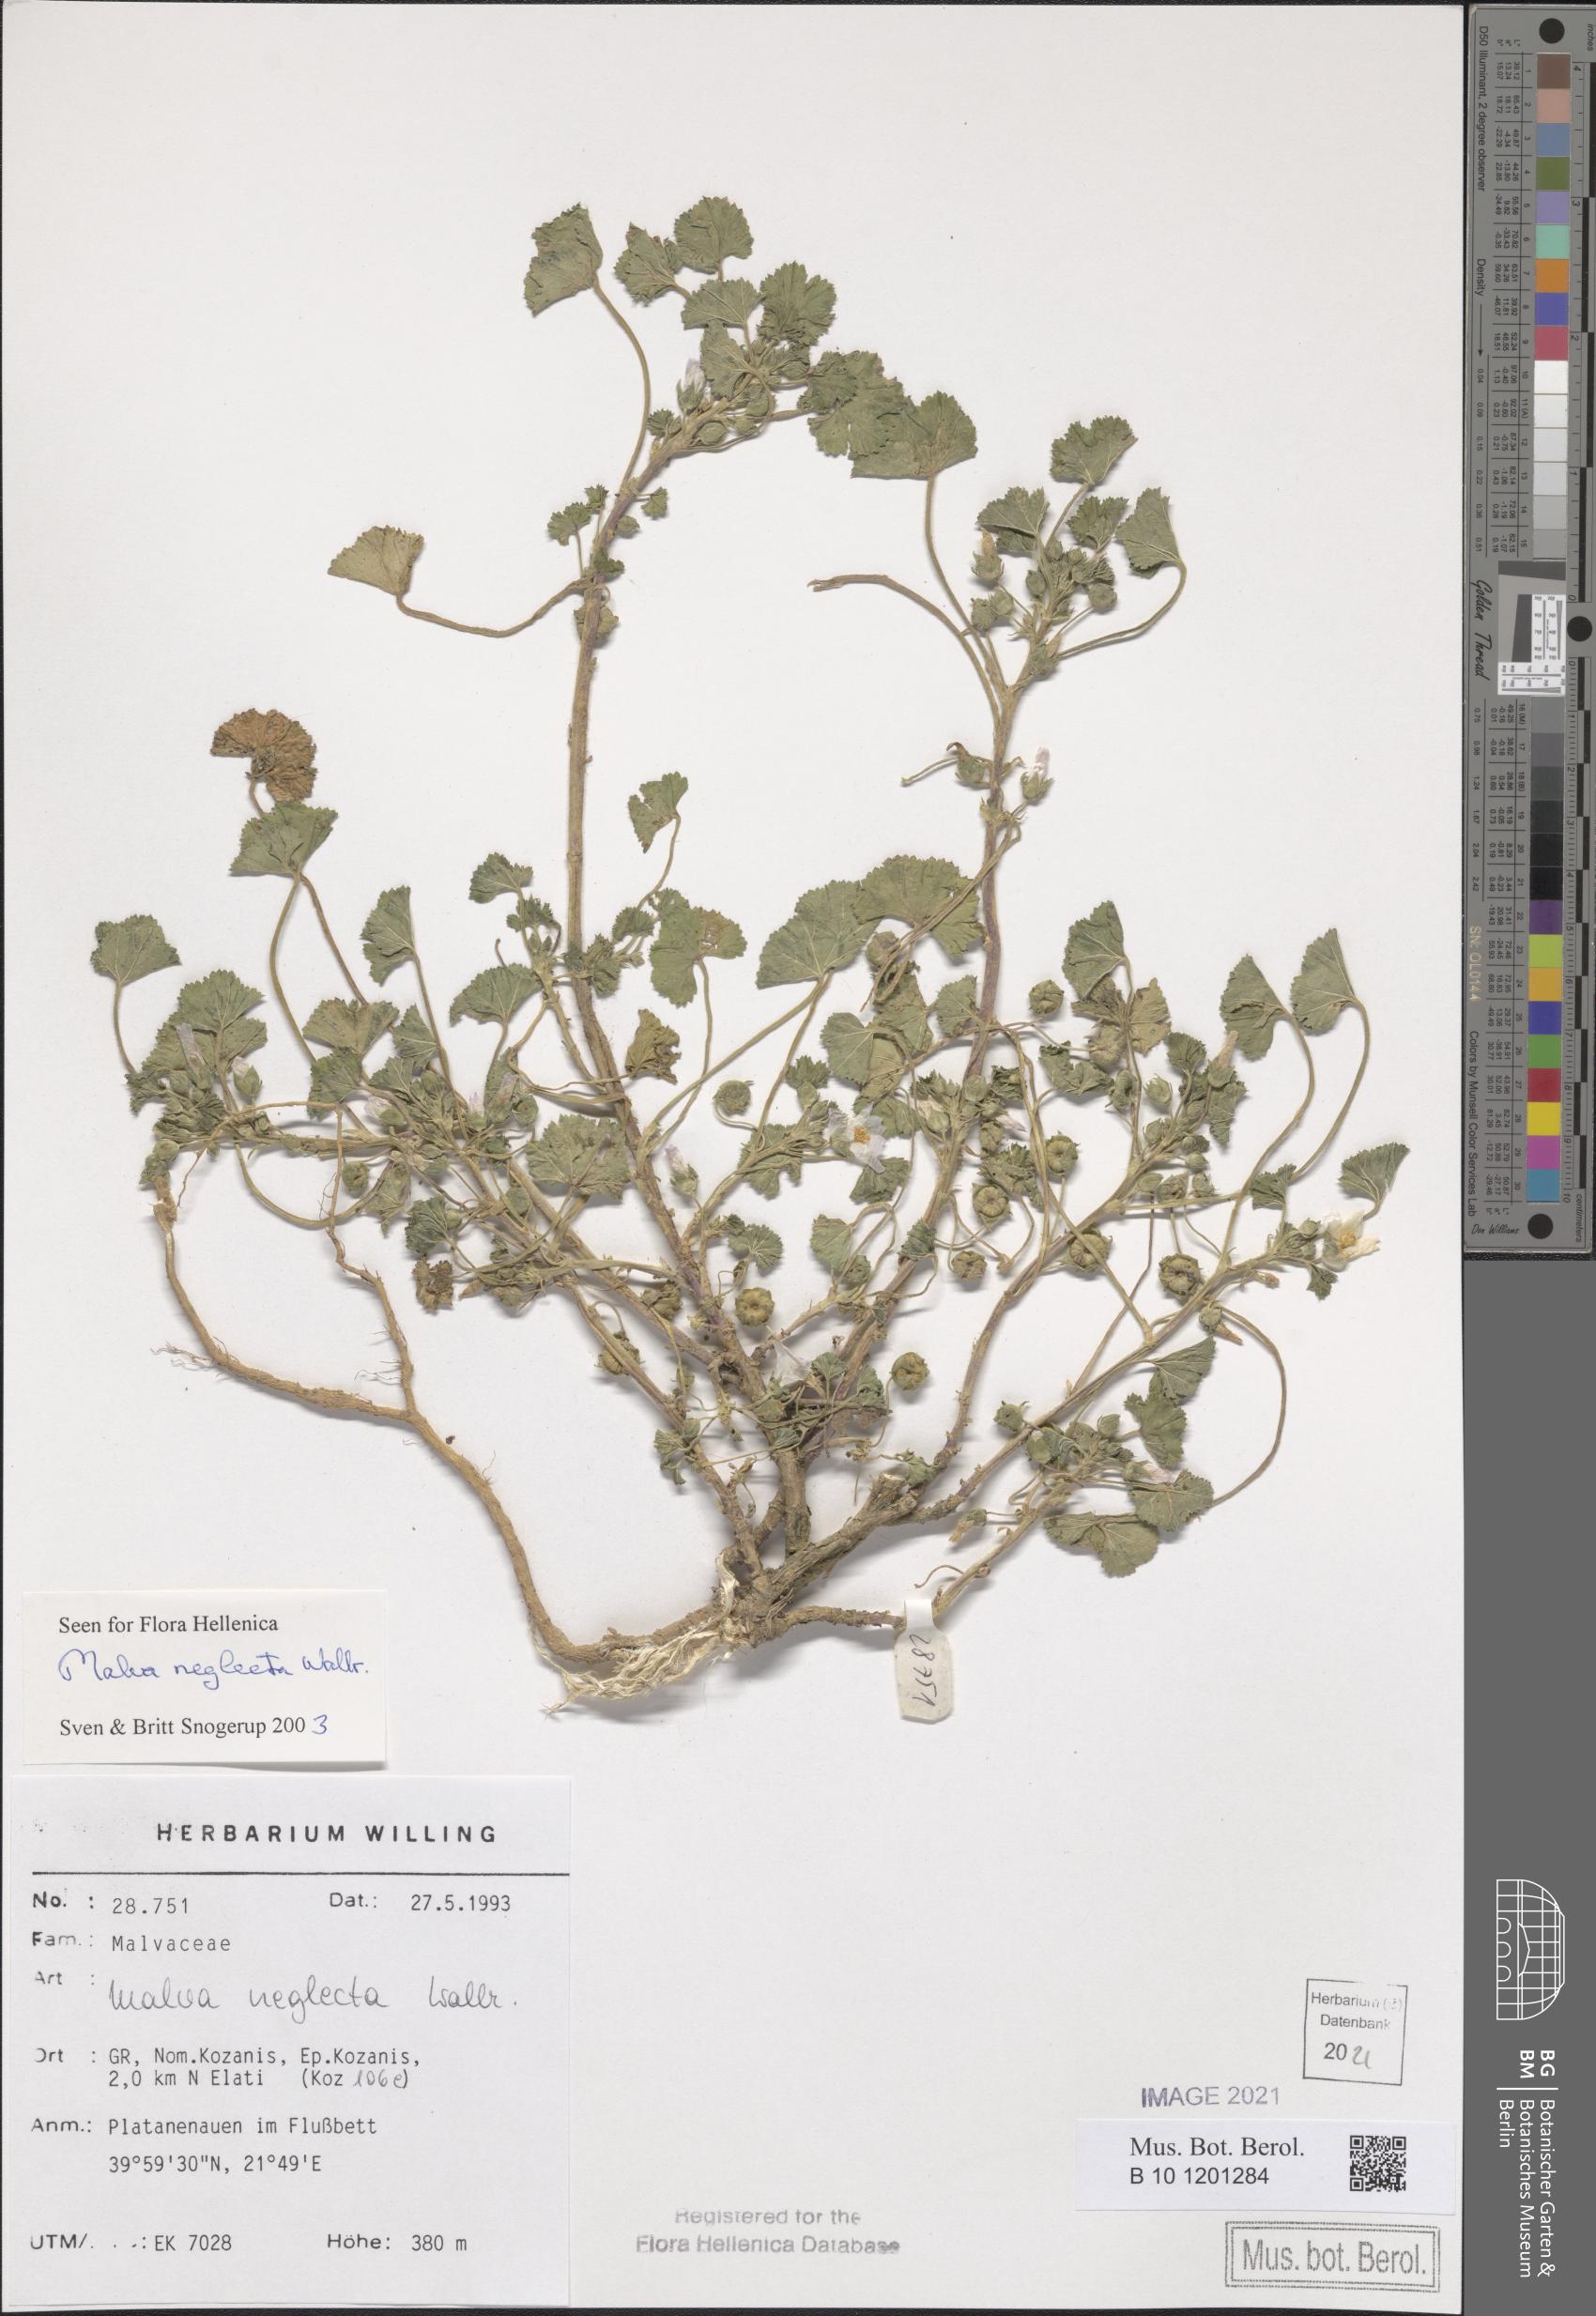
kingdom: Plantae
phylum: Tracheophyta
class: Magnoliopsida
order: Malvales
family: Malvaceae
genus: Malva
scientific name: Malva neglecta
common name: Common mallow
